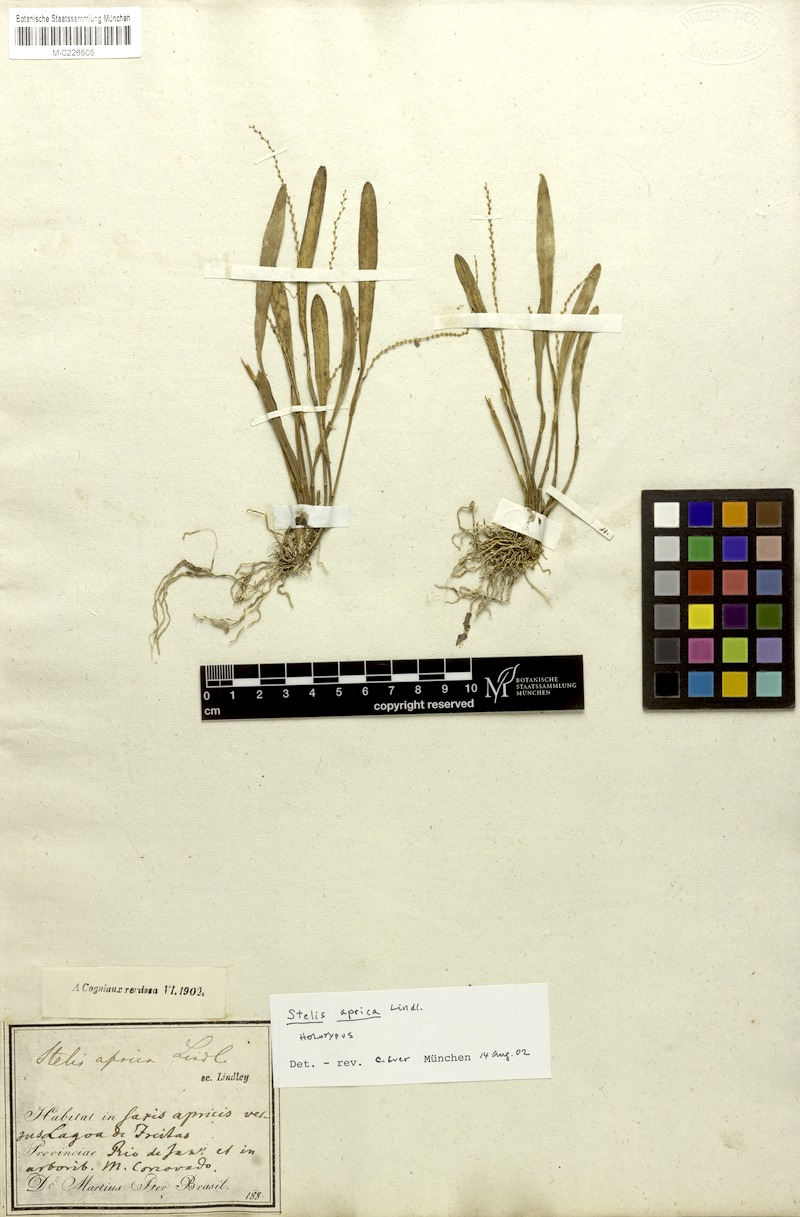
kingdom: Plantae
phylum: Tracheophyta
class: Liliopsida
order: Asparagales
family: Orchidaceae
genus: Stelis
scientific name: Stelis aprica
